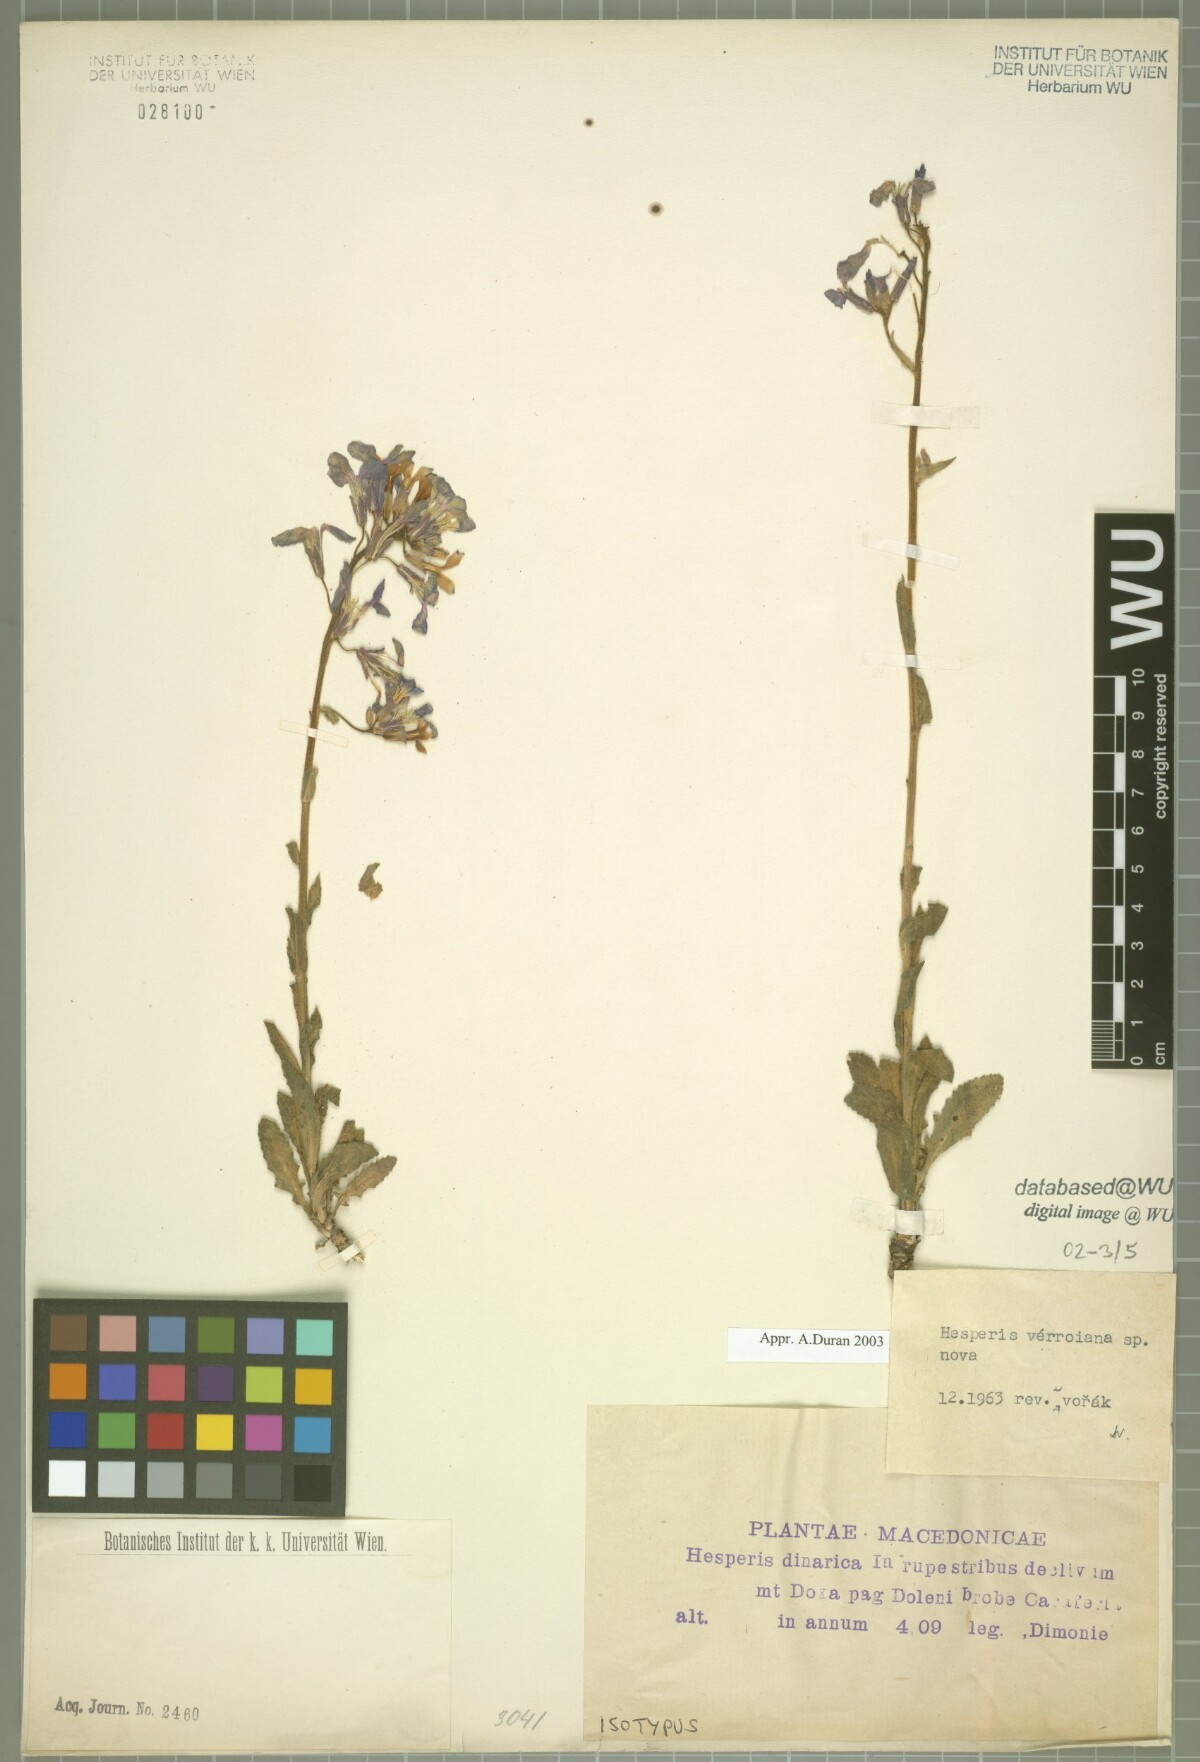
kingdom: Plantae
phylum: Tracheophyta
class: Magnoliopsida
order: Brassicales
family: Brassicaceae
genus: Hesperis
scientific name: Hesperis theophrasti
